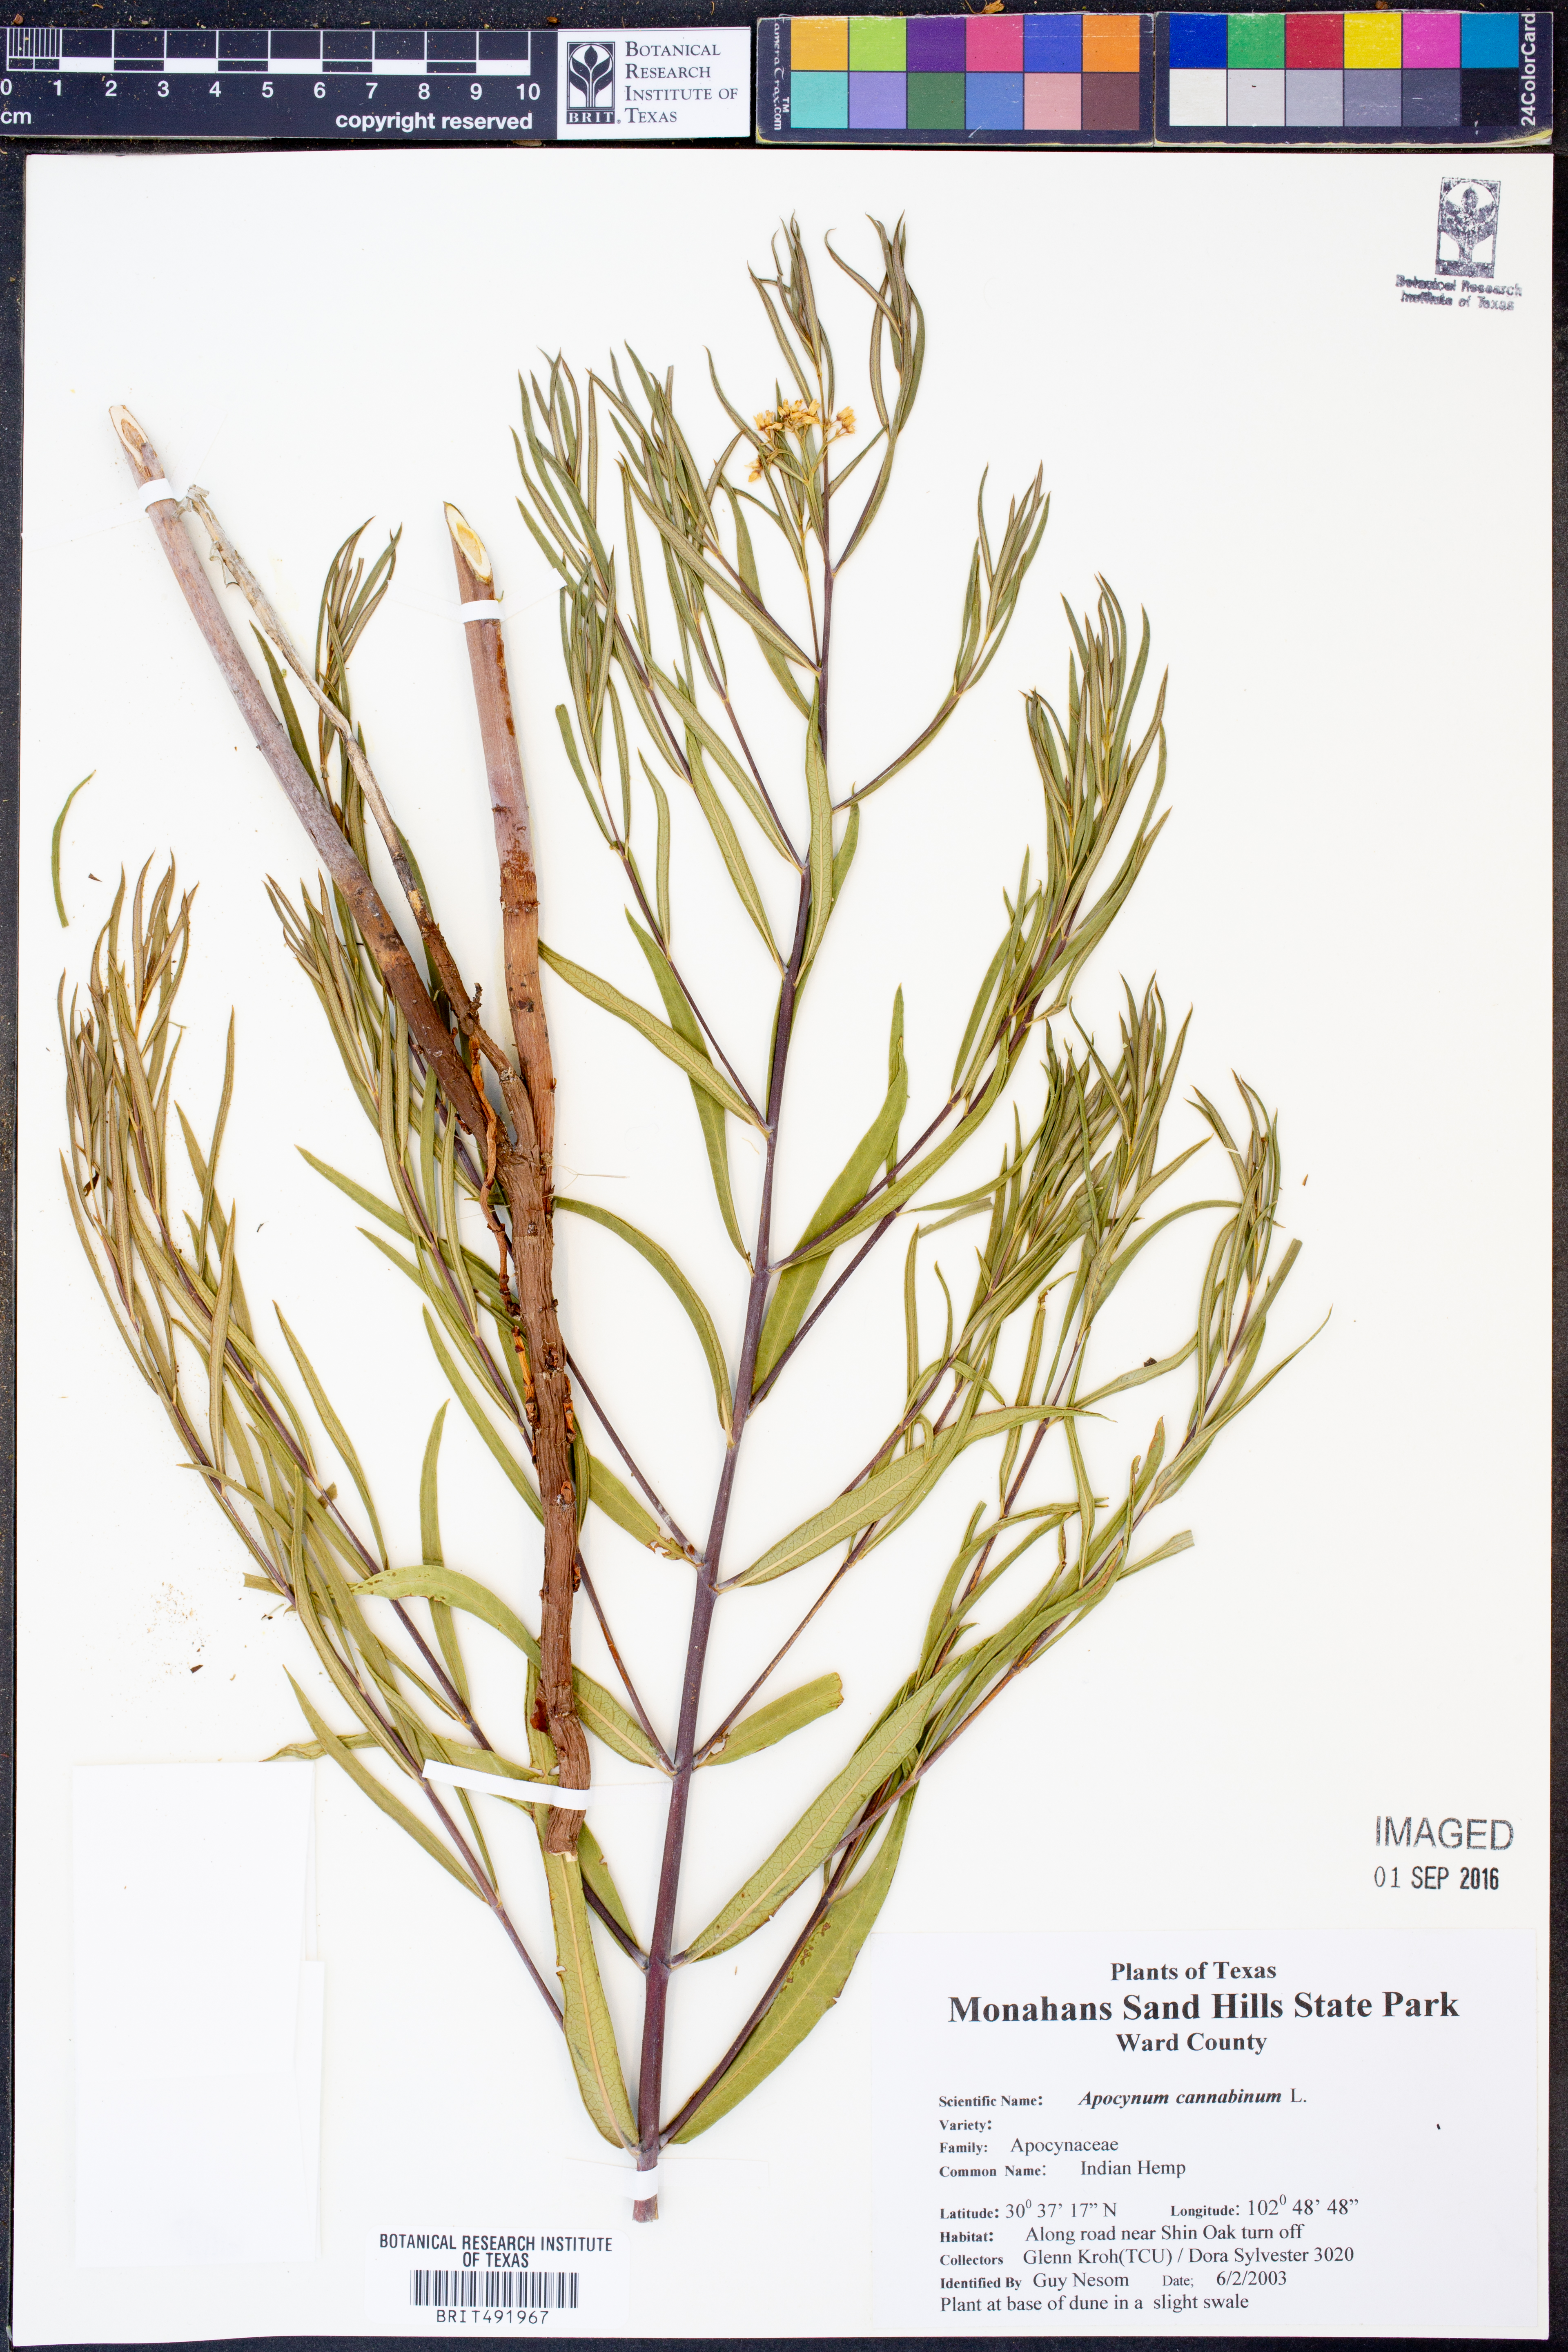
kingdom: Plantae
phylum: Tracheophyta
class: Magnoliopsida
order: Gentianales
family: Apocynaceae
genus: Apocynum
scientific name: Apocynum cannabinum
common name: Hemp dogbane
